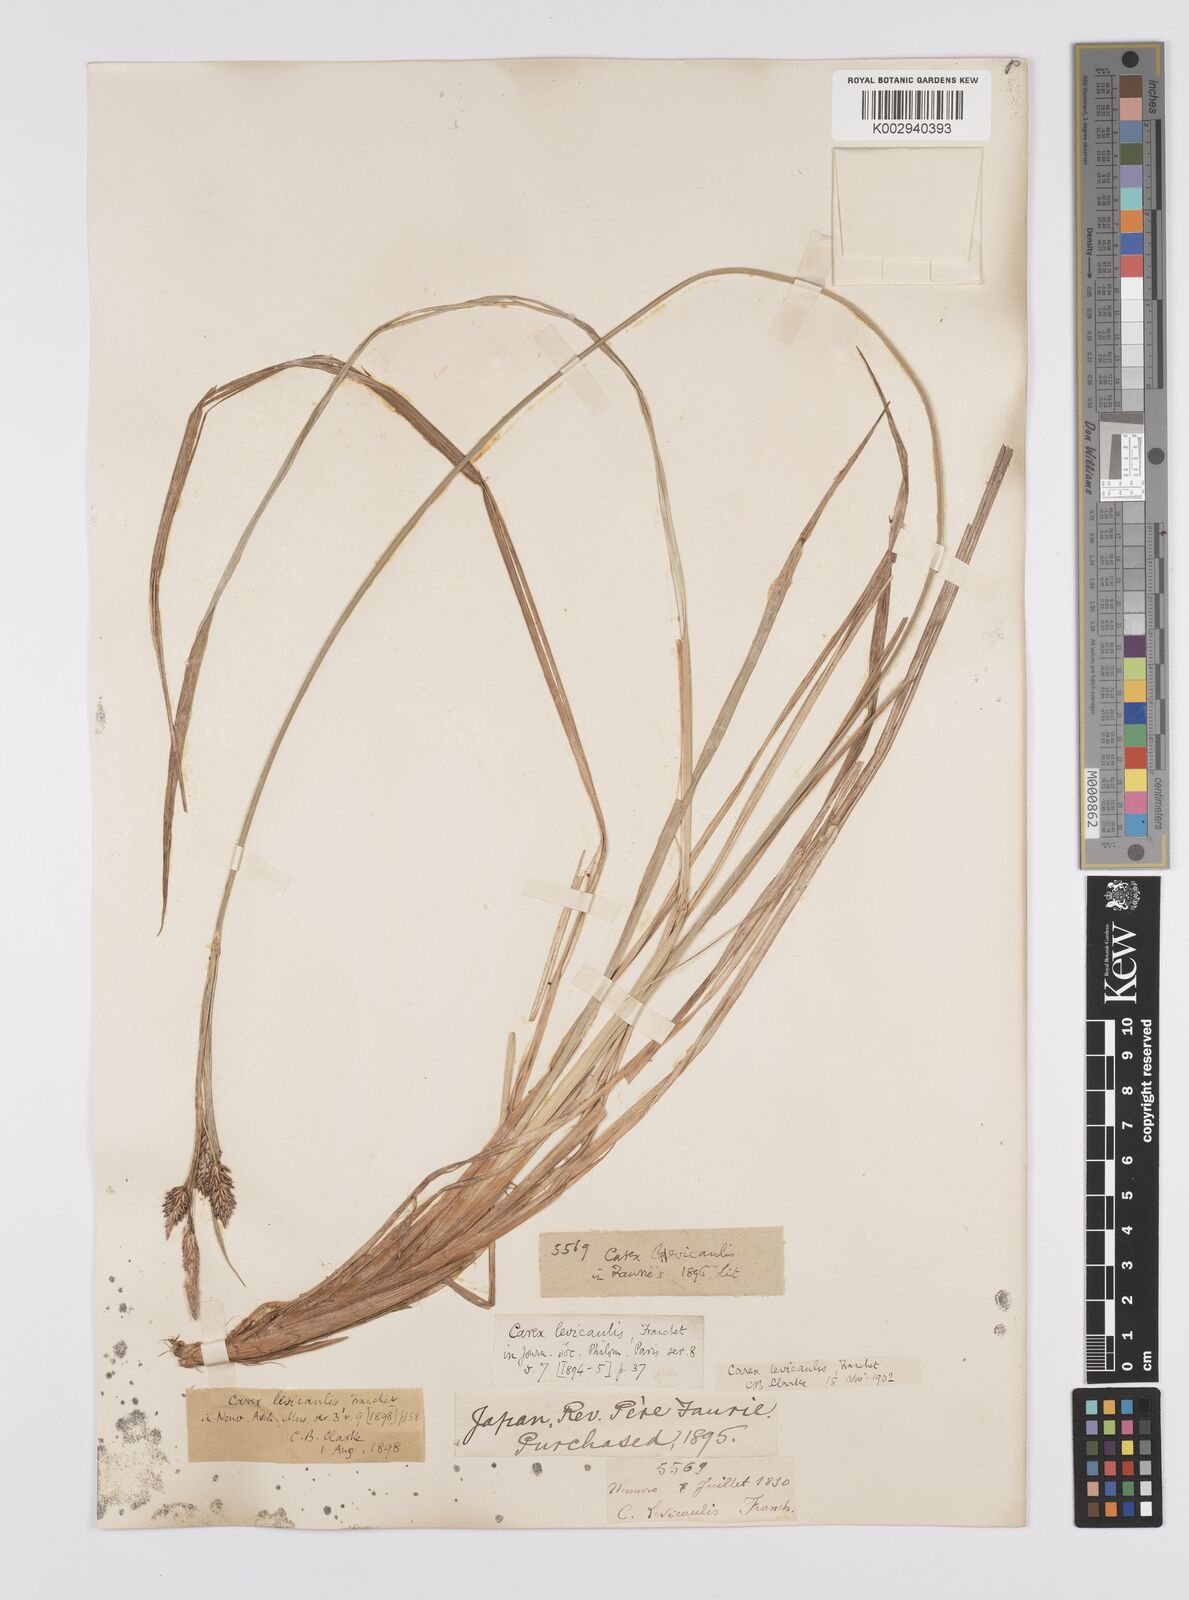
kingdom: Plantae
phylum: Tracheophyta
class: Liliopsida
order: Poales
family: Cyperaceae
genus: Carex
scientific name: Carex middendorffii
